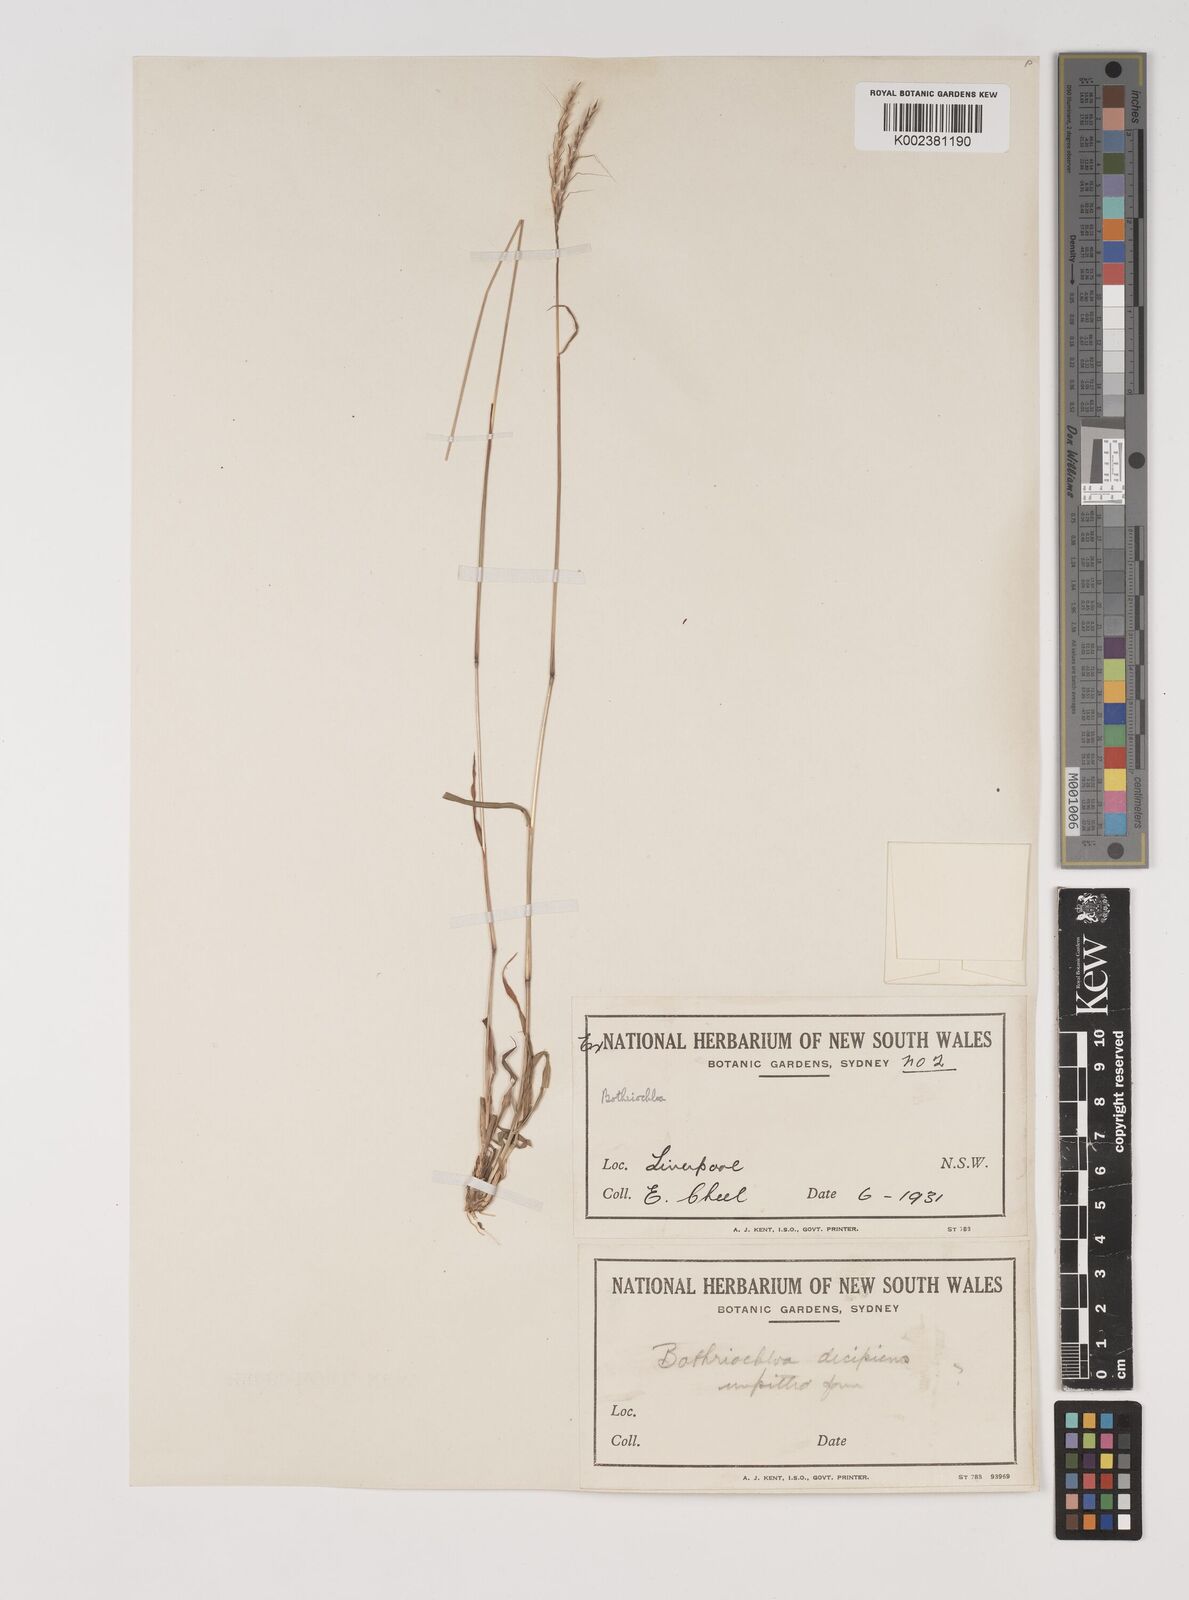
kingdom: Plantae
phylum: Tracheophyta
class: Liliopsida
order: Poales
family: Poaceae
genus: Bothriochloa
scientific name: Bothriochloa macra
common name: Pitted beard grass
